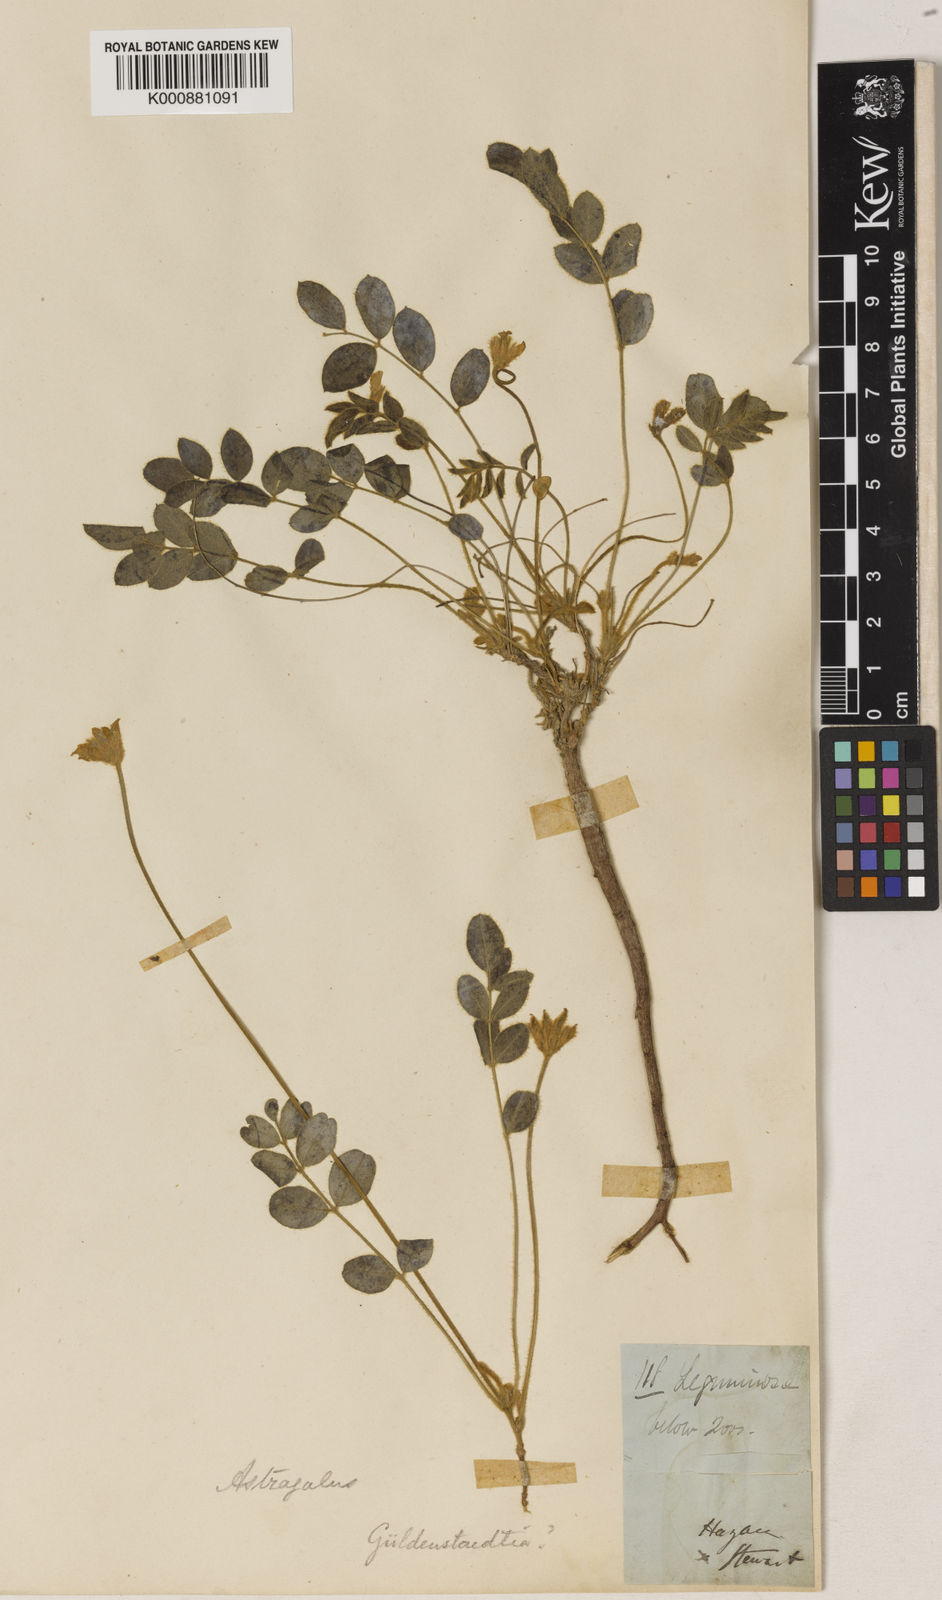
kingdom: Plantae
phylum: Tracheophyta
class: Magnoliopsida
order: Fabales
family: Fabaceae
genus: Gueldenstaedtia
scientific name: Gueldenstaedtia
